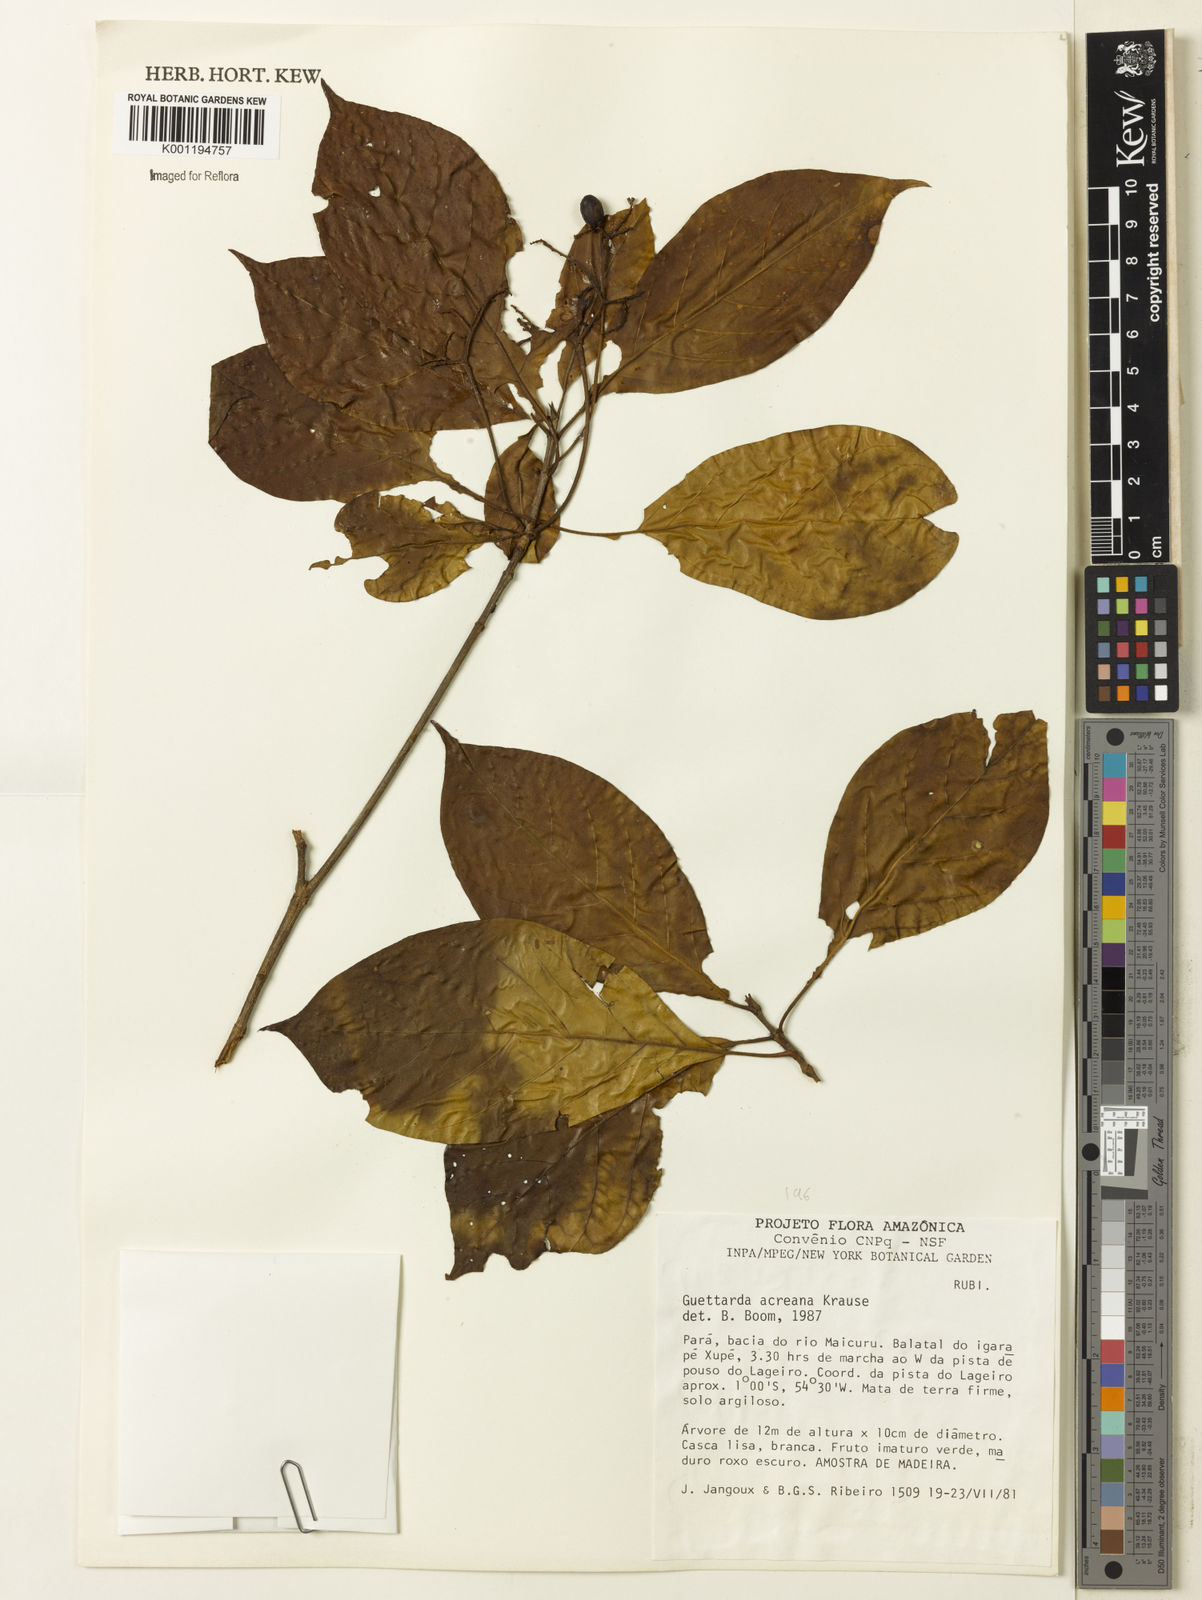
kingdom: Plantae
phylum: Tracheophyta
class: Magnoliopsida
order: Gentianales
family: Rubiaceae
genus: Stenostomum
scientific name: Stenostomum acreanum
